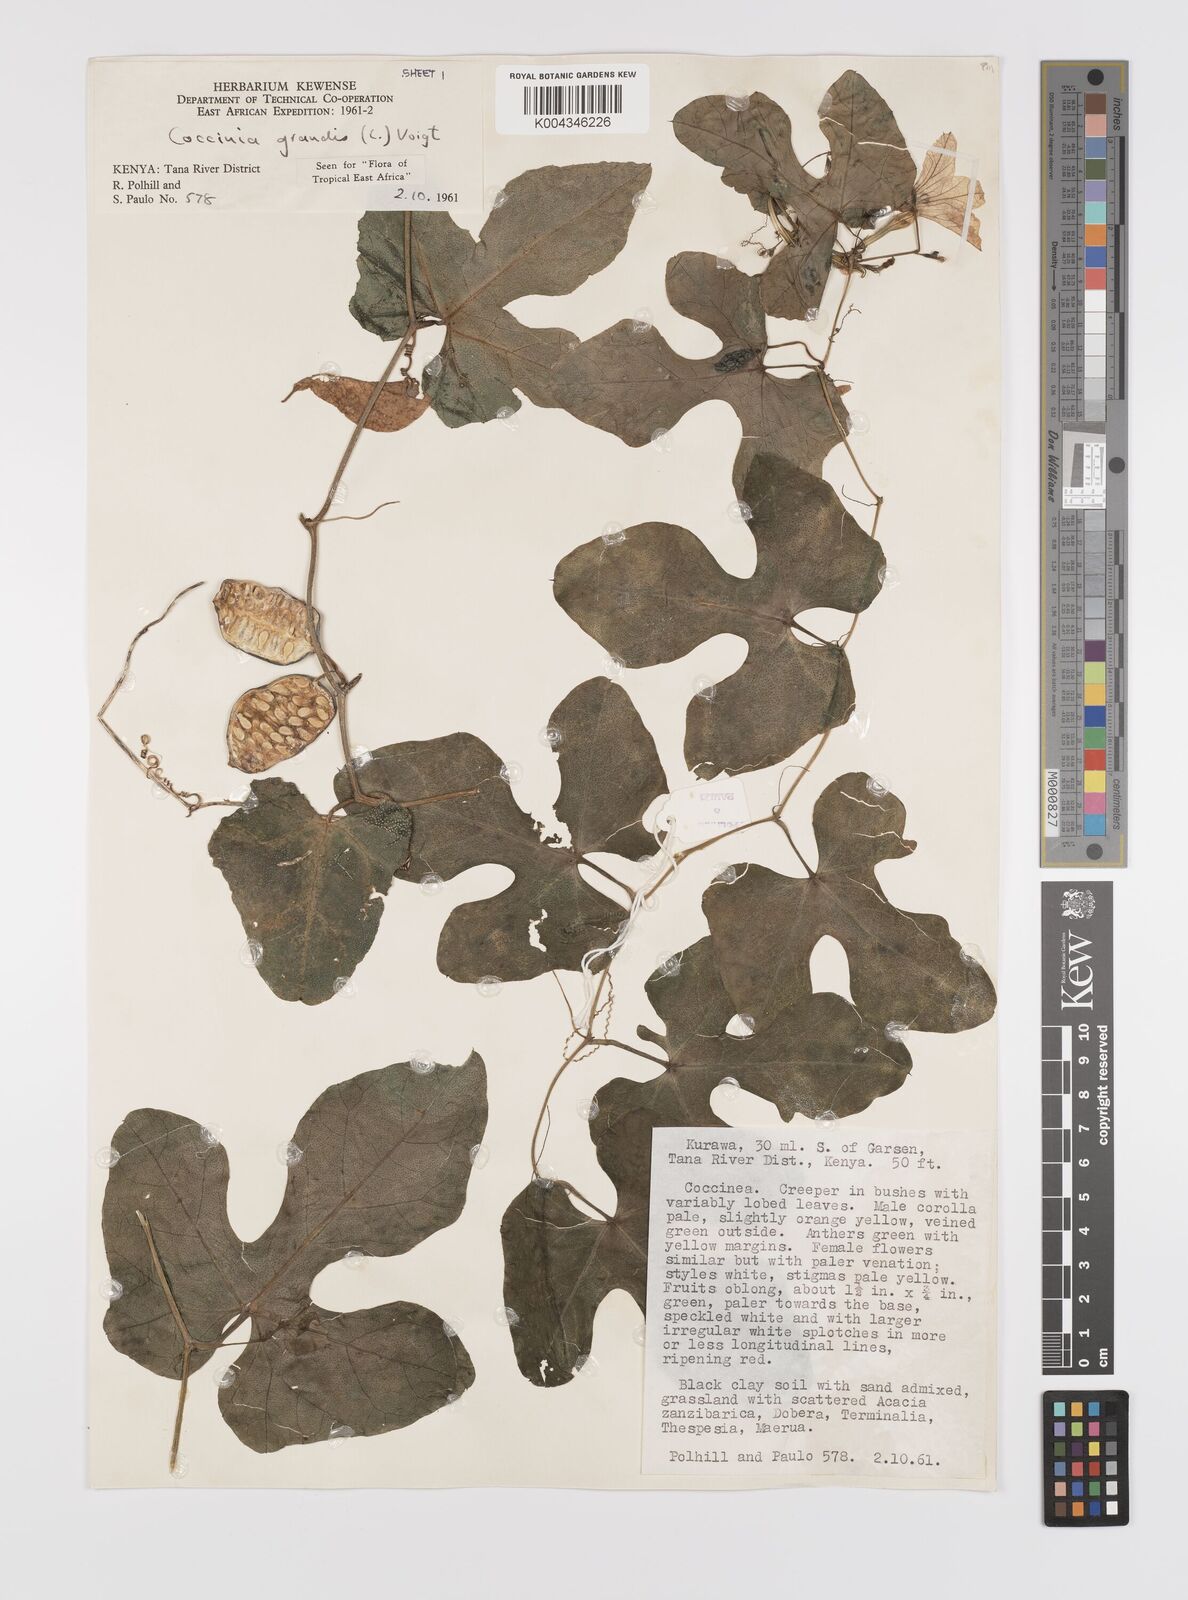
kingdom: Plantae
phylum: Tracheophyta
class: Magnoliopsida
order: Cucurbitales
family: Cucurbitaceae
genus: Coccinia
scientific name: Coccinia grandis
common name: Ivy gourd
